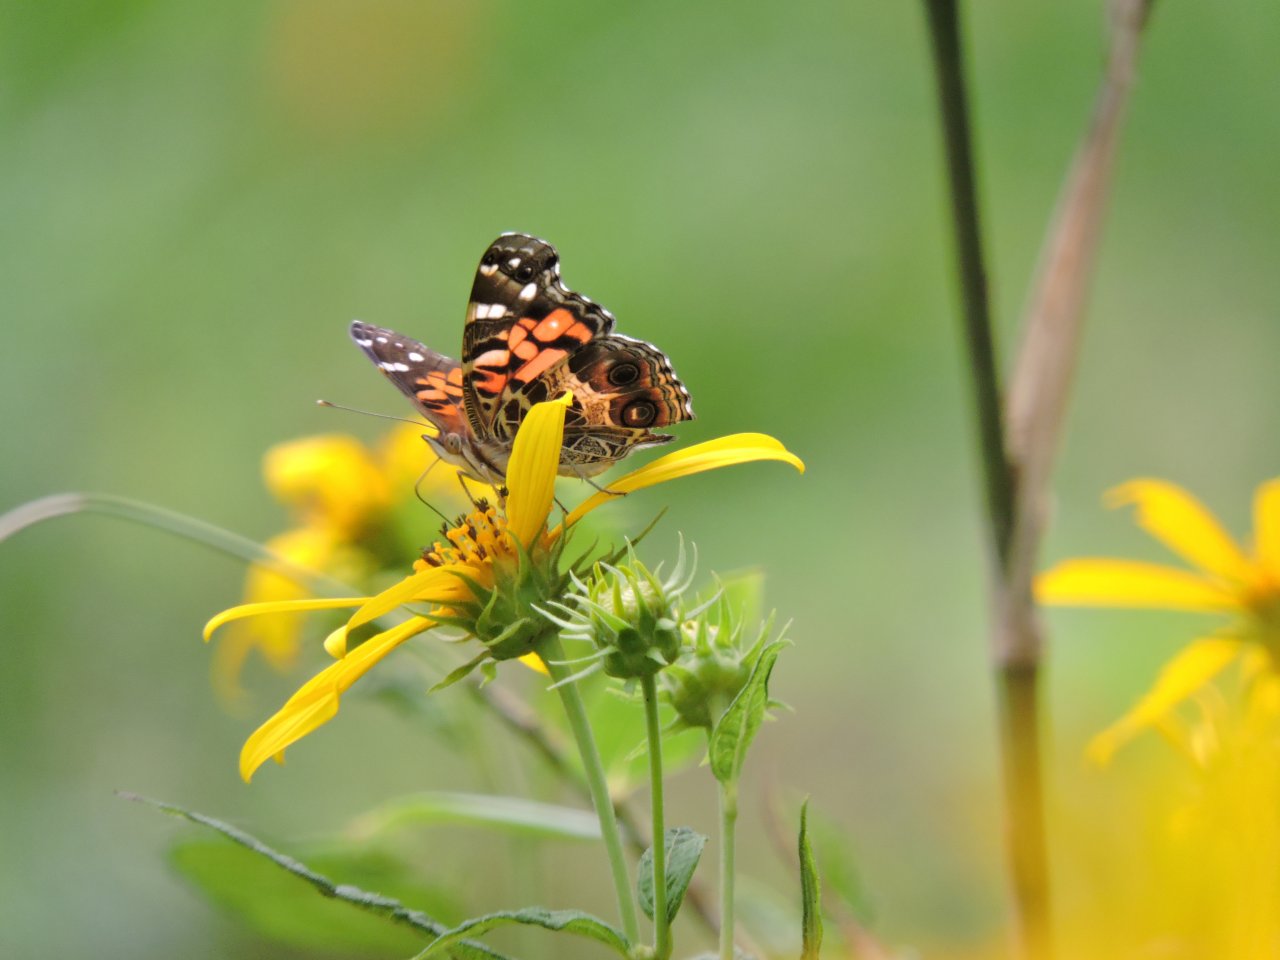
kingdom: Animalia
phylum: Arthropoda
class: Insecta
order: Lepidoptera
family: Nymphalidae
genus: Vanessa
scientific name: Vanessa virginiensis
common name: American Lady
